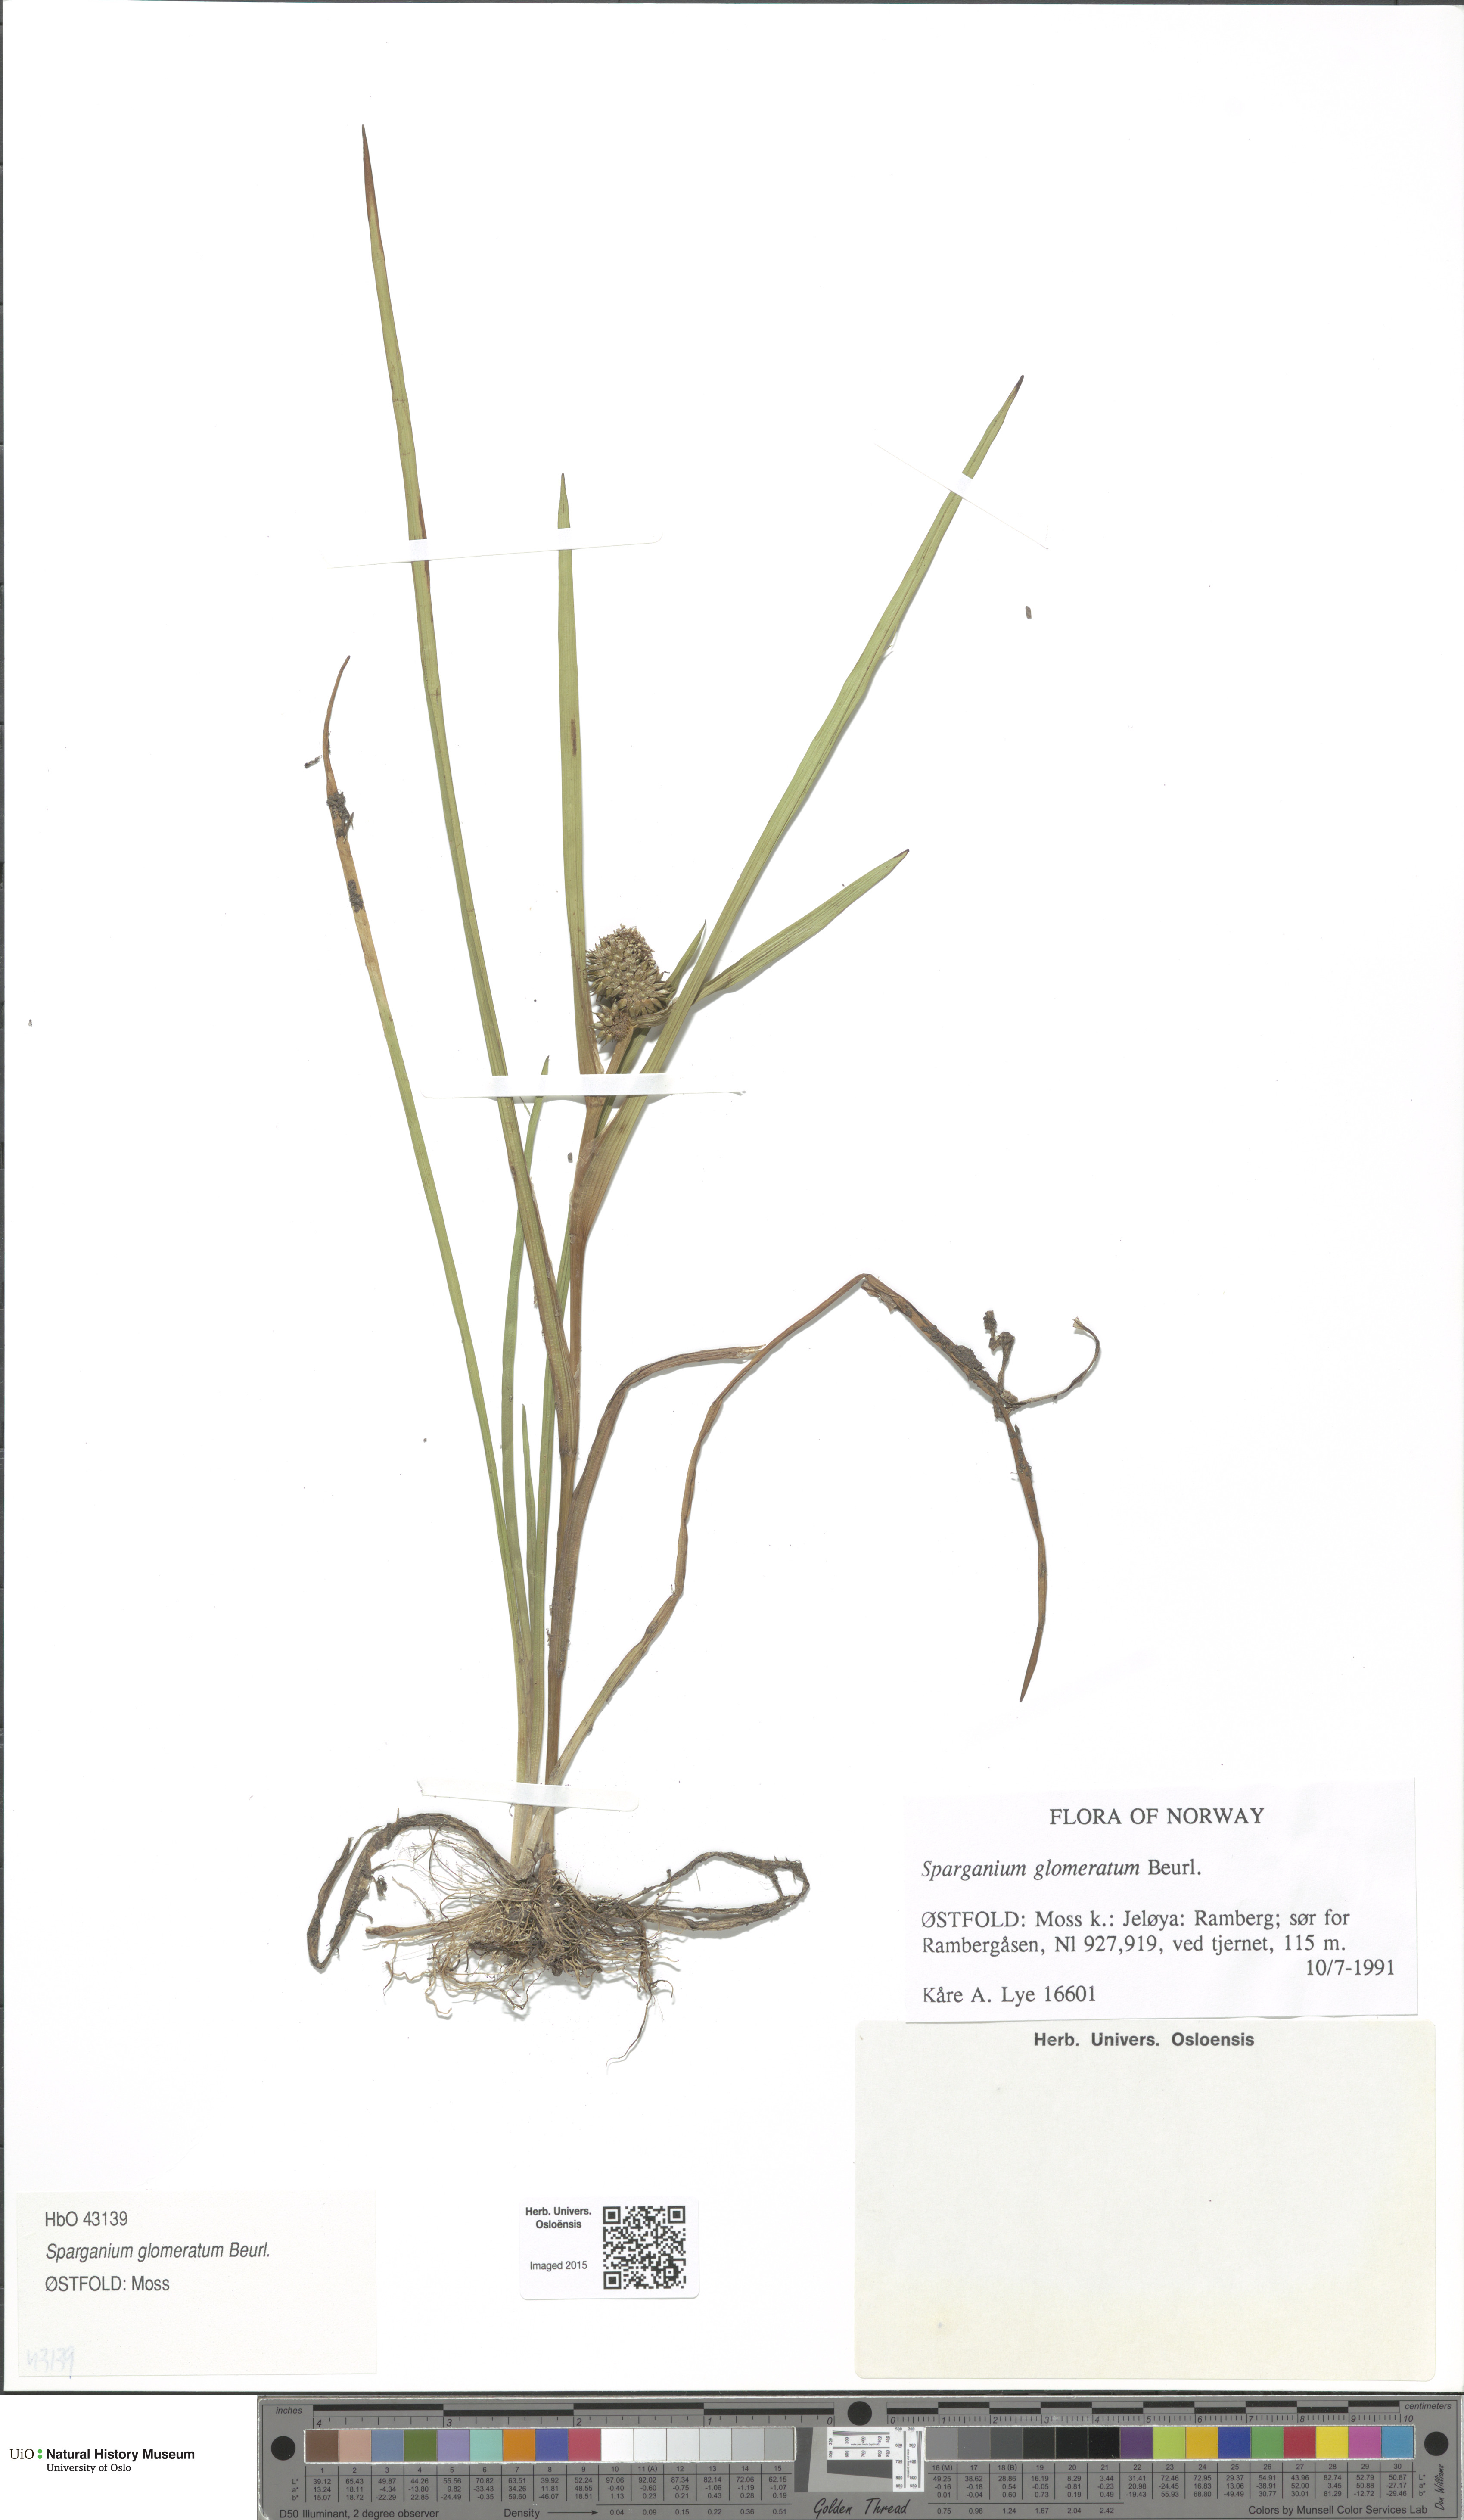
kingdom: Plantae
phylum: Tracheophyta
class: Liliopsida
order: Poales
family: Typhaceae
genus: Sparganium
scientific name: Sparganium glomeratum
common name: Clustered burreed
